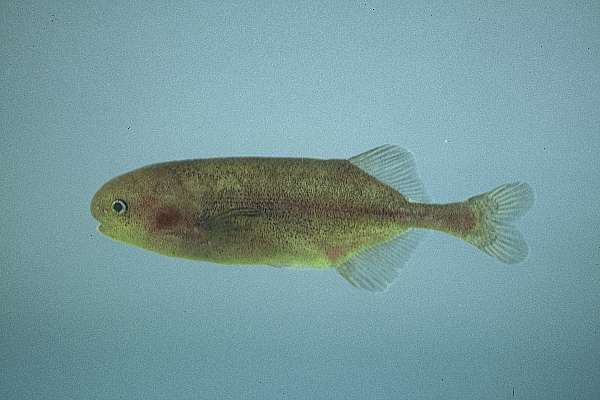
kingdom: Animalia
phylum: Chordata
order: Osteoglossiformes
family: Mormyridae
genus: Pollimyrus
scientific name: Pollimyrus castelnaui
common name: Dwarf stonebasher
